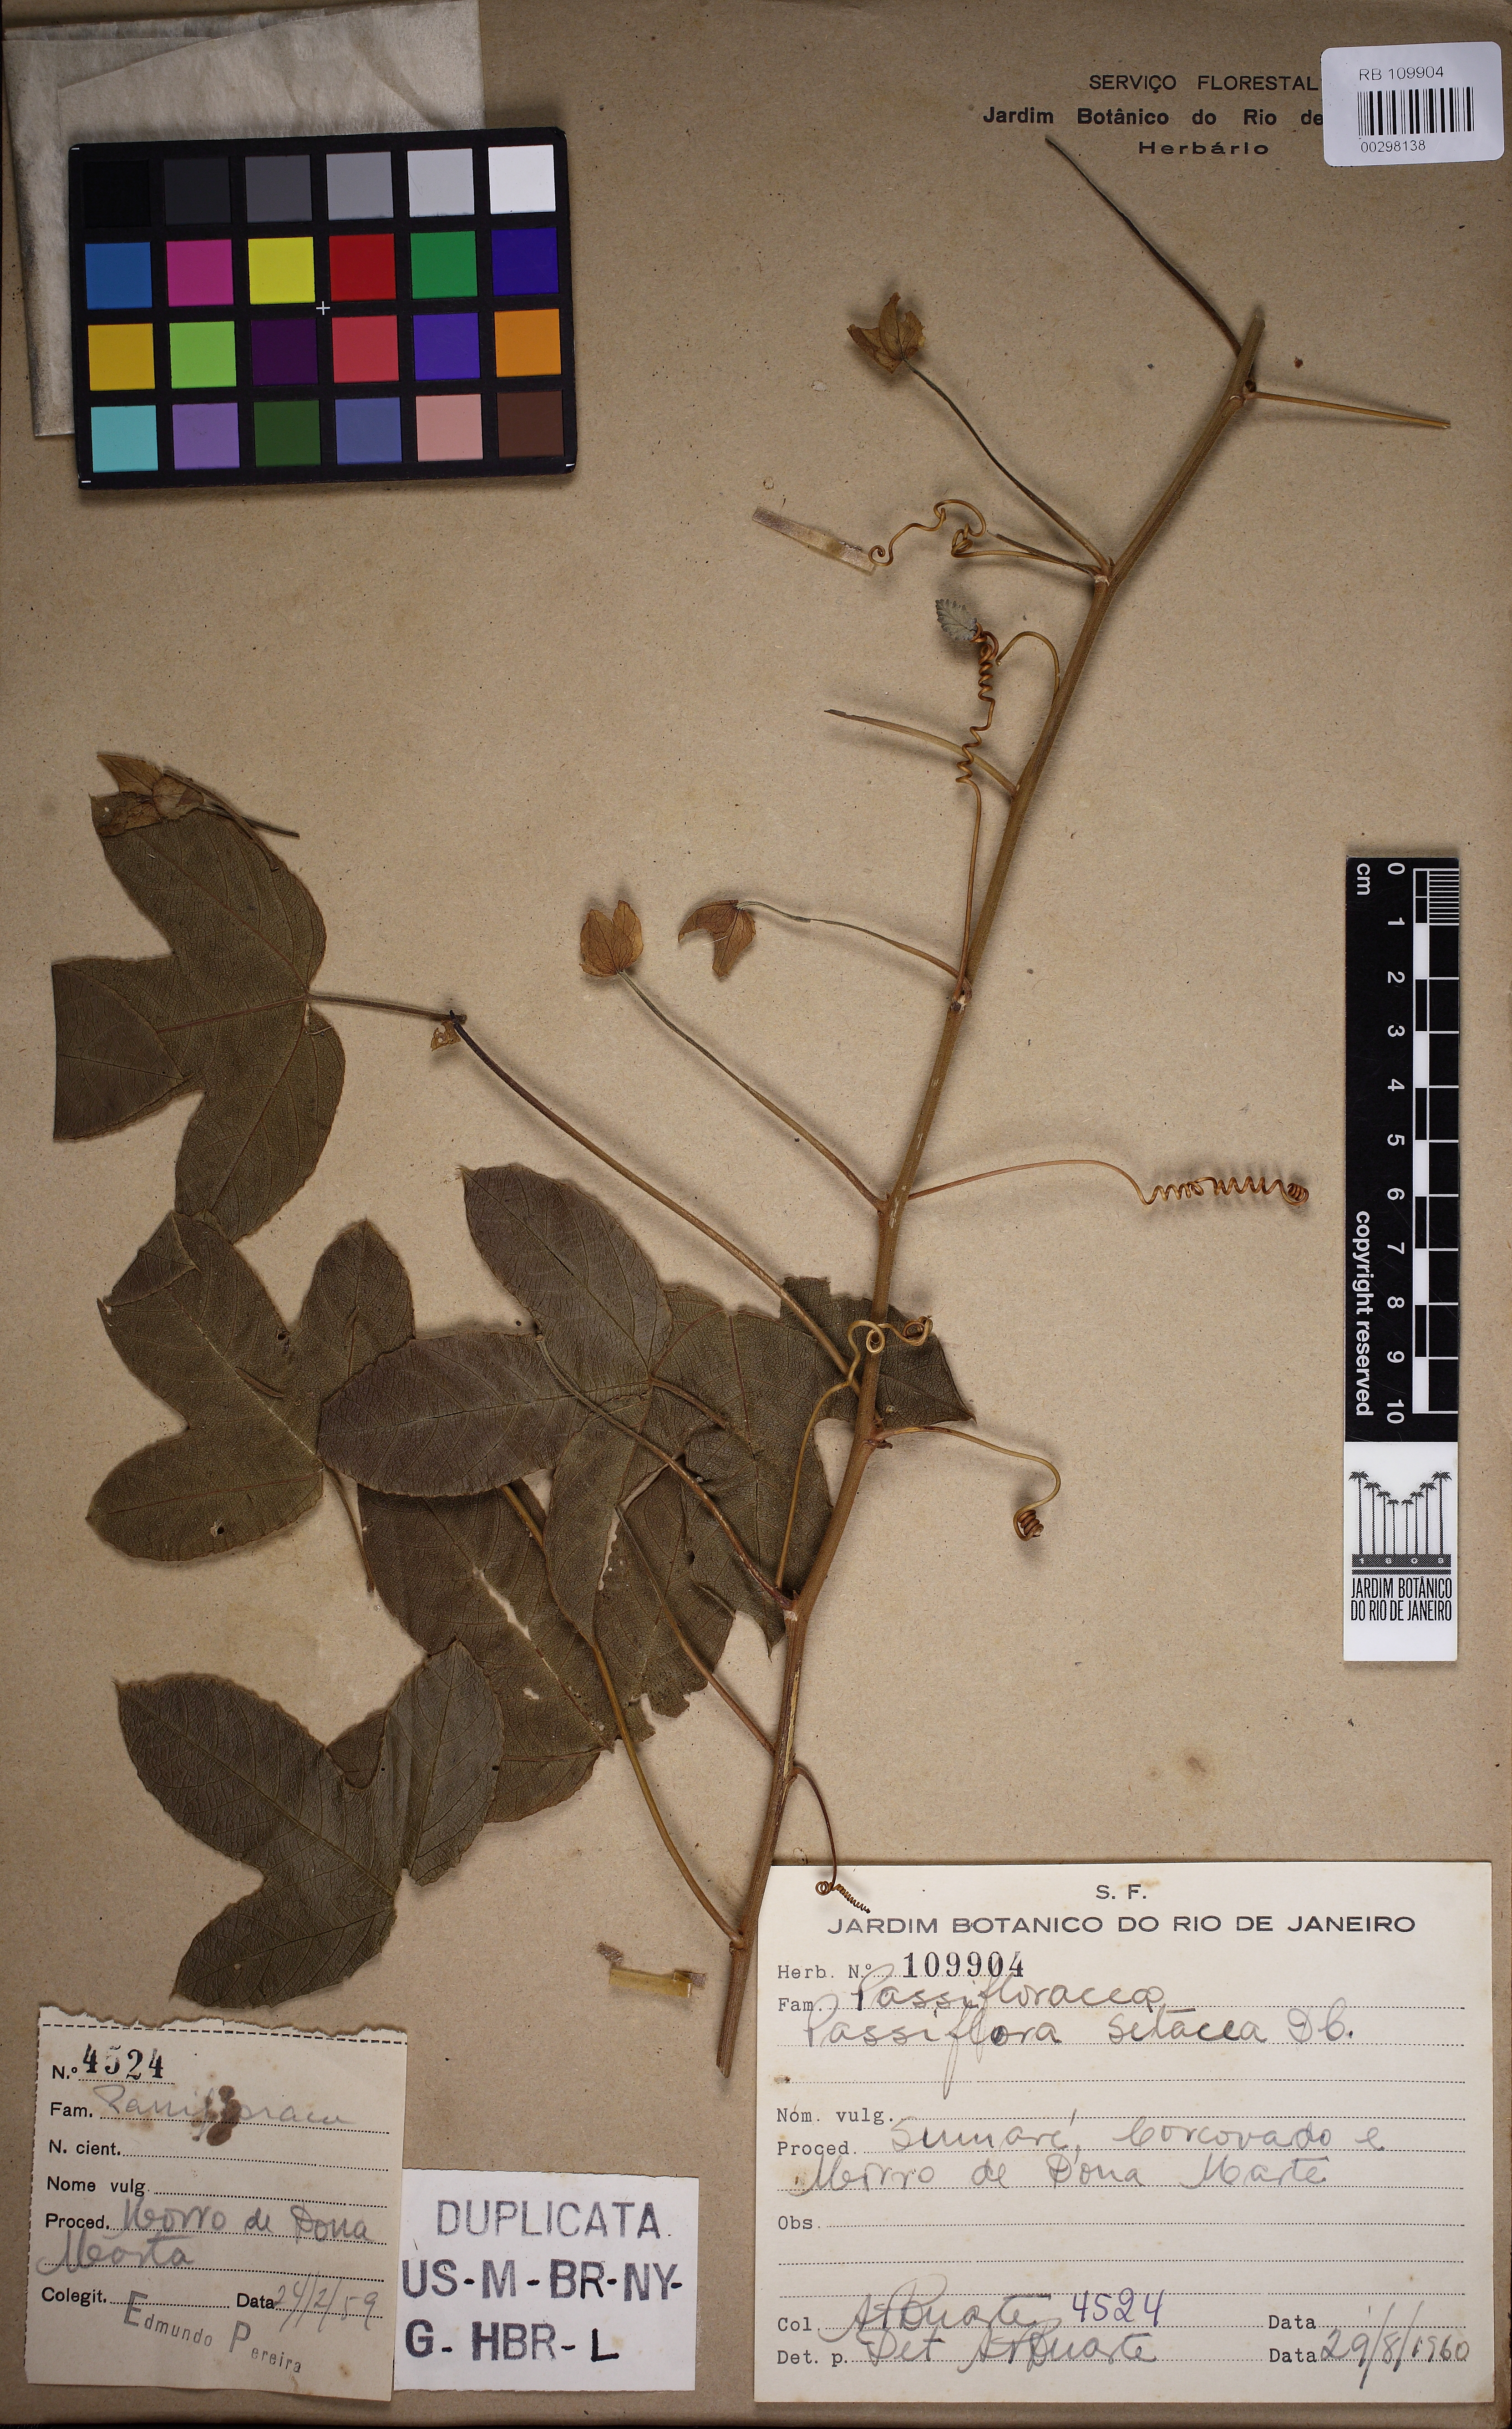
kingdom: Plantae
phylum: Tracheophyta
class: Magnoliopsida
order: Malpighiales
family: Passifloraceae
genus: Passiflora
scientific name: Passiflora setacea
